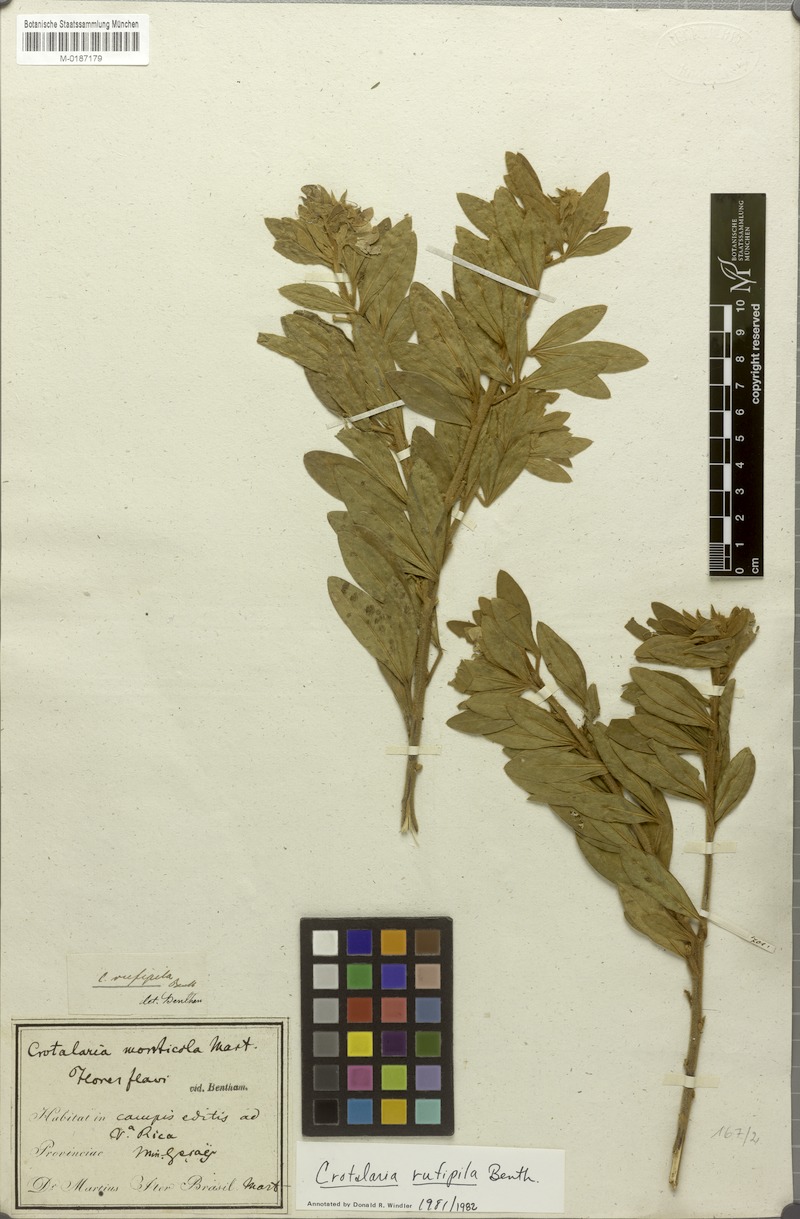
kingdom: Plantae
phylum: Tracheophyta
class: Magnoliopsida
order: Fabales
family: Fabaceae
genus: Crotalaria
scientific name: Crotalaria rufipila
